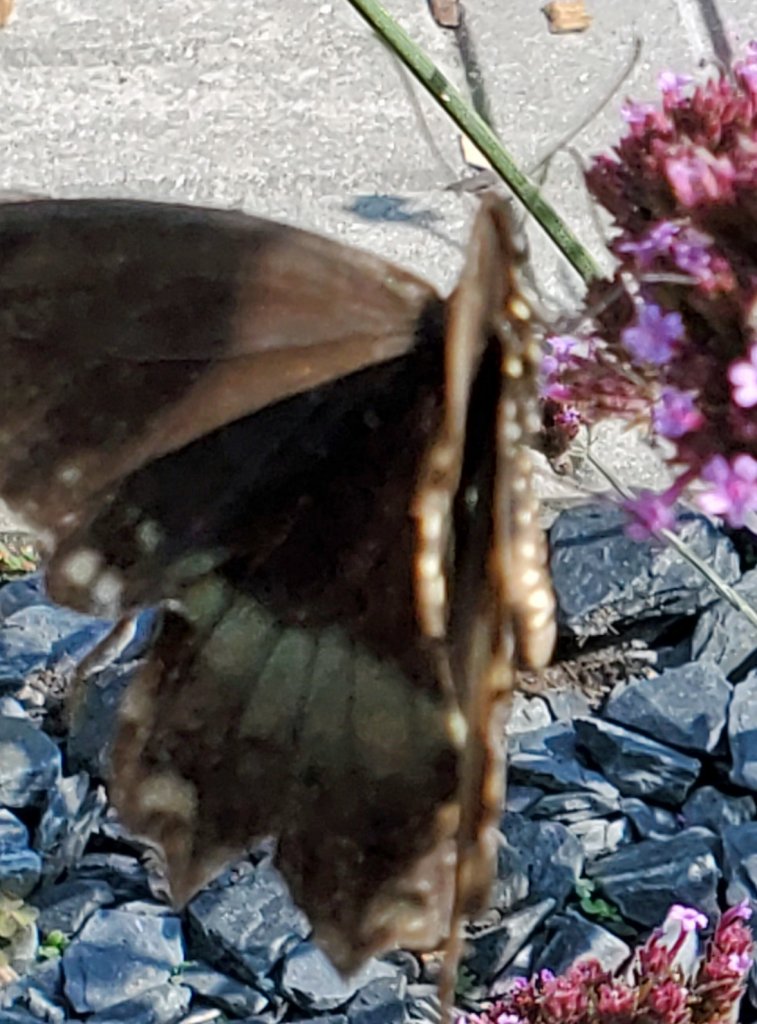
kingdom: Animalia
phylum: Arthropoda
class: Insecta
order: Lepidoptera
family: Papilionidae
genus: Pterourus
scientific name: Pterourus troilus
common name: Spicebush Swallowtail
